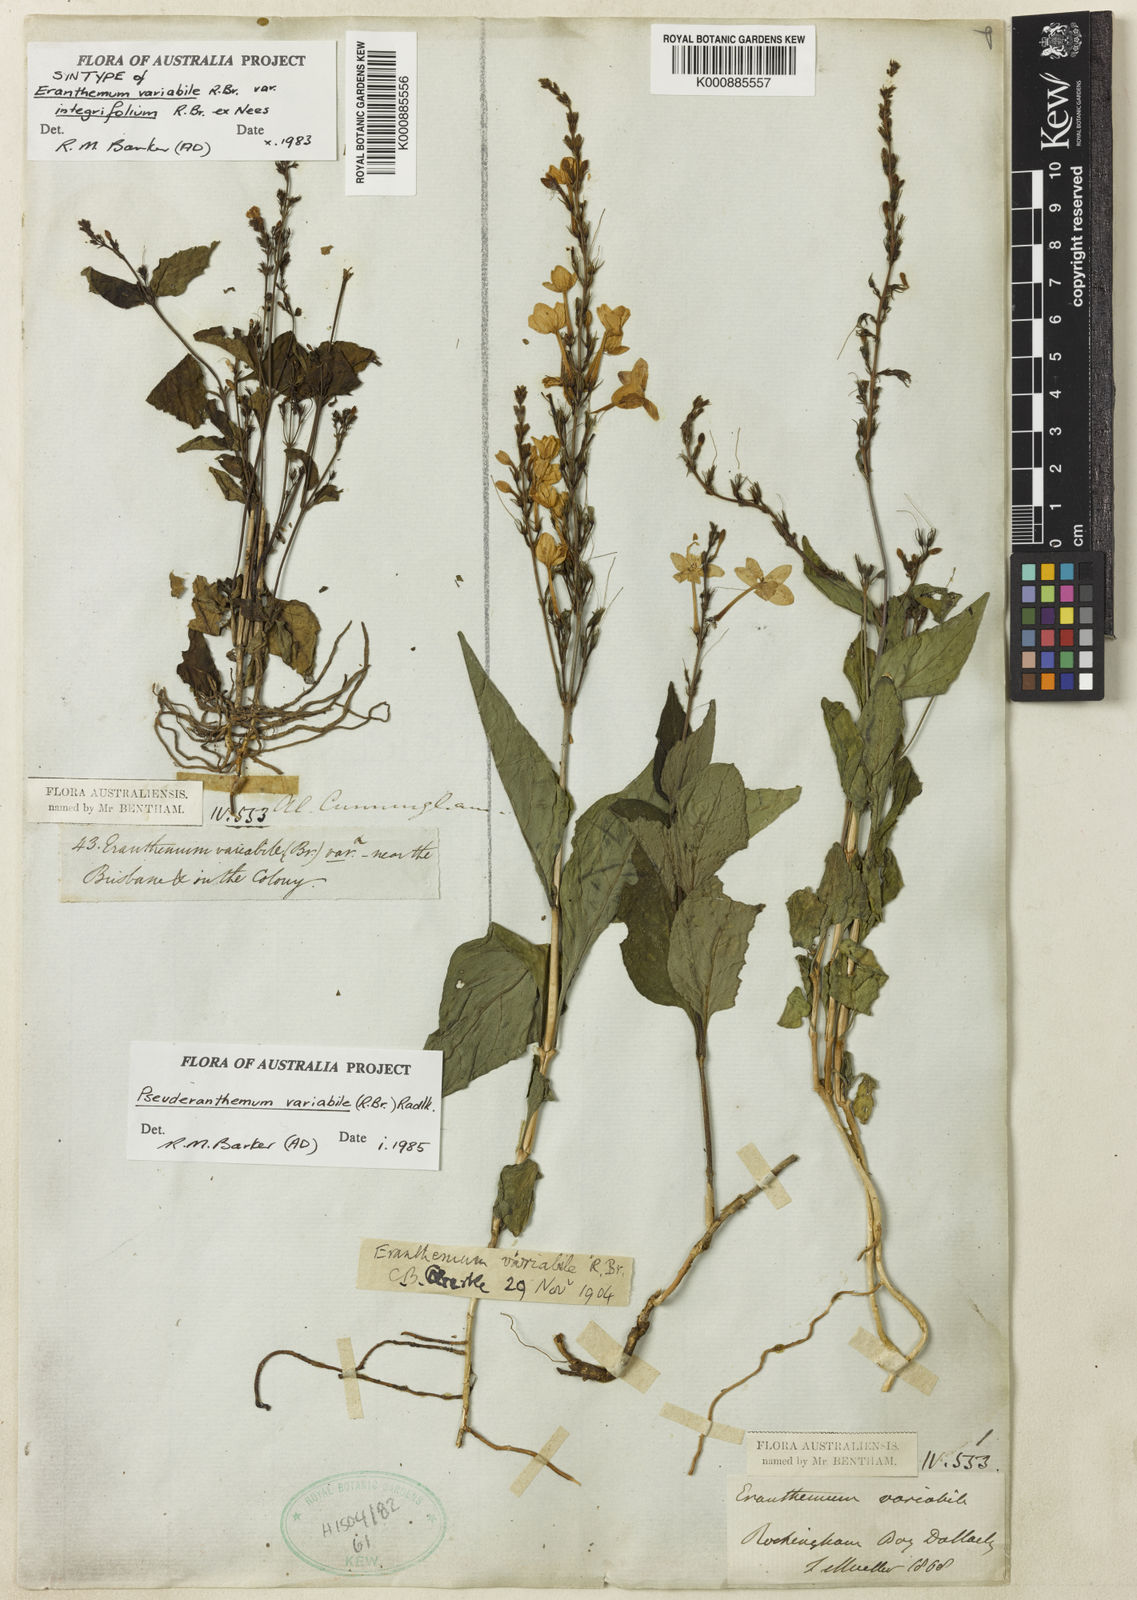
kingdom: Plantae
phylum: Tracheophyta
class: Magnoliopsida
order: Lamiales
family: Acanthaceae
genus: Pseuderanthemum
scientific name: Pseuderanthemum variabile
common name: Night and afternoon
